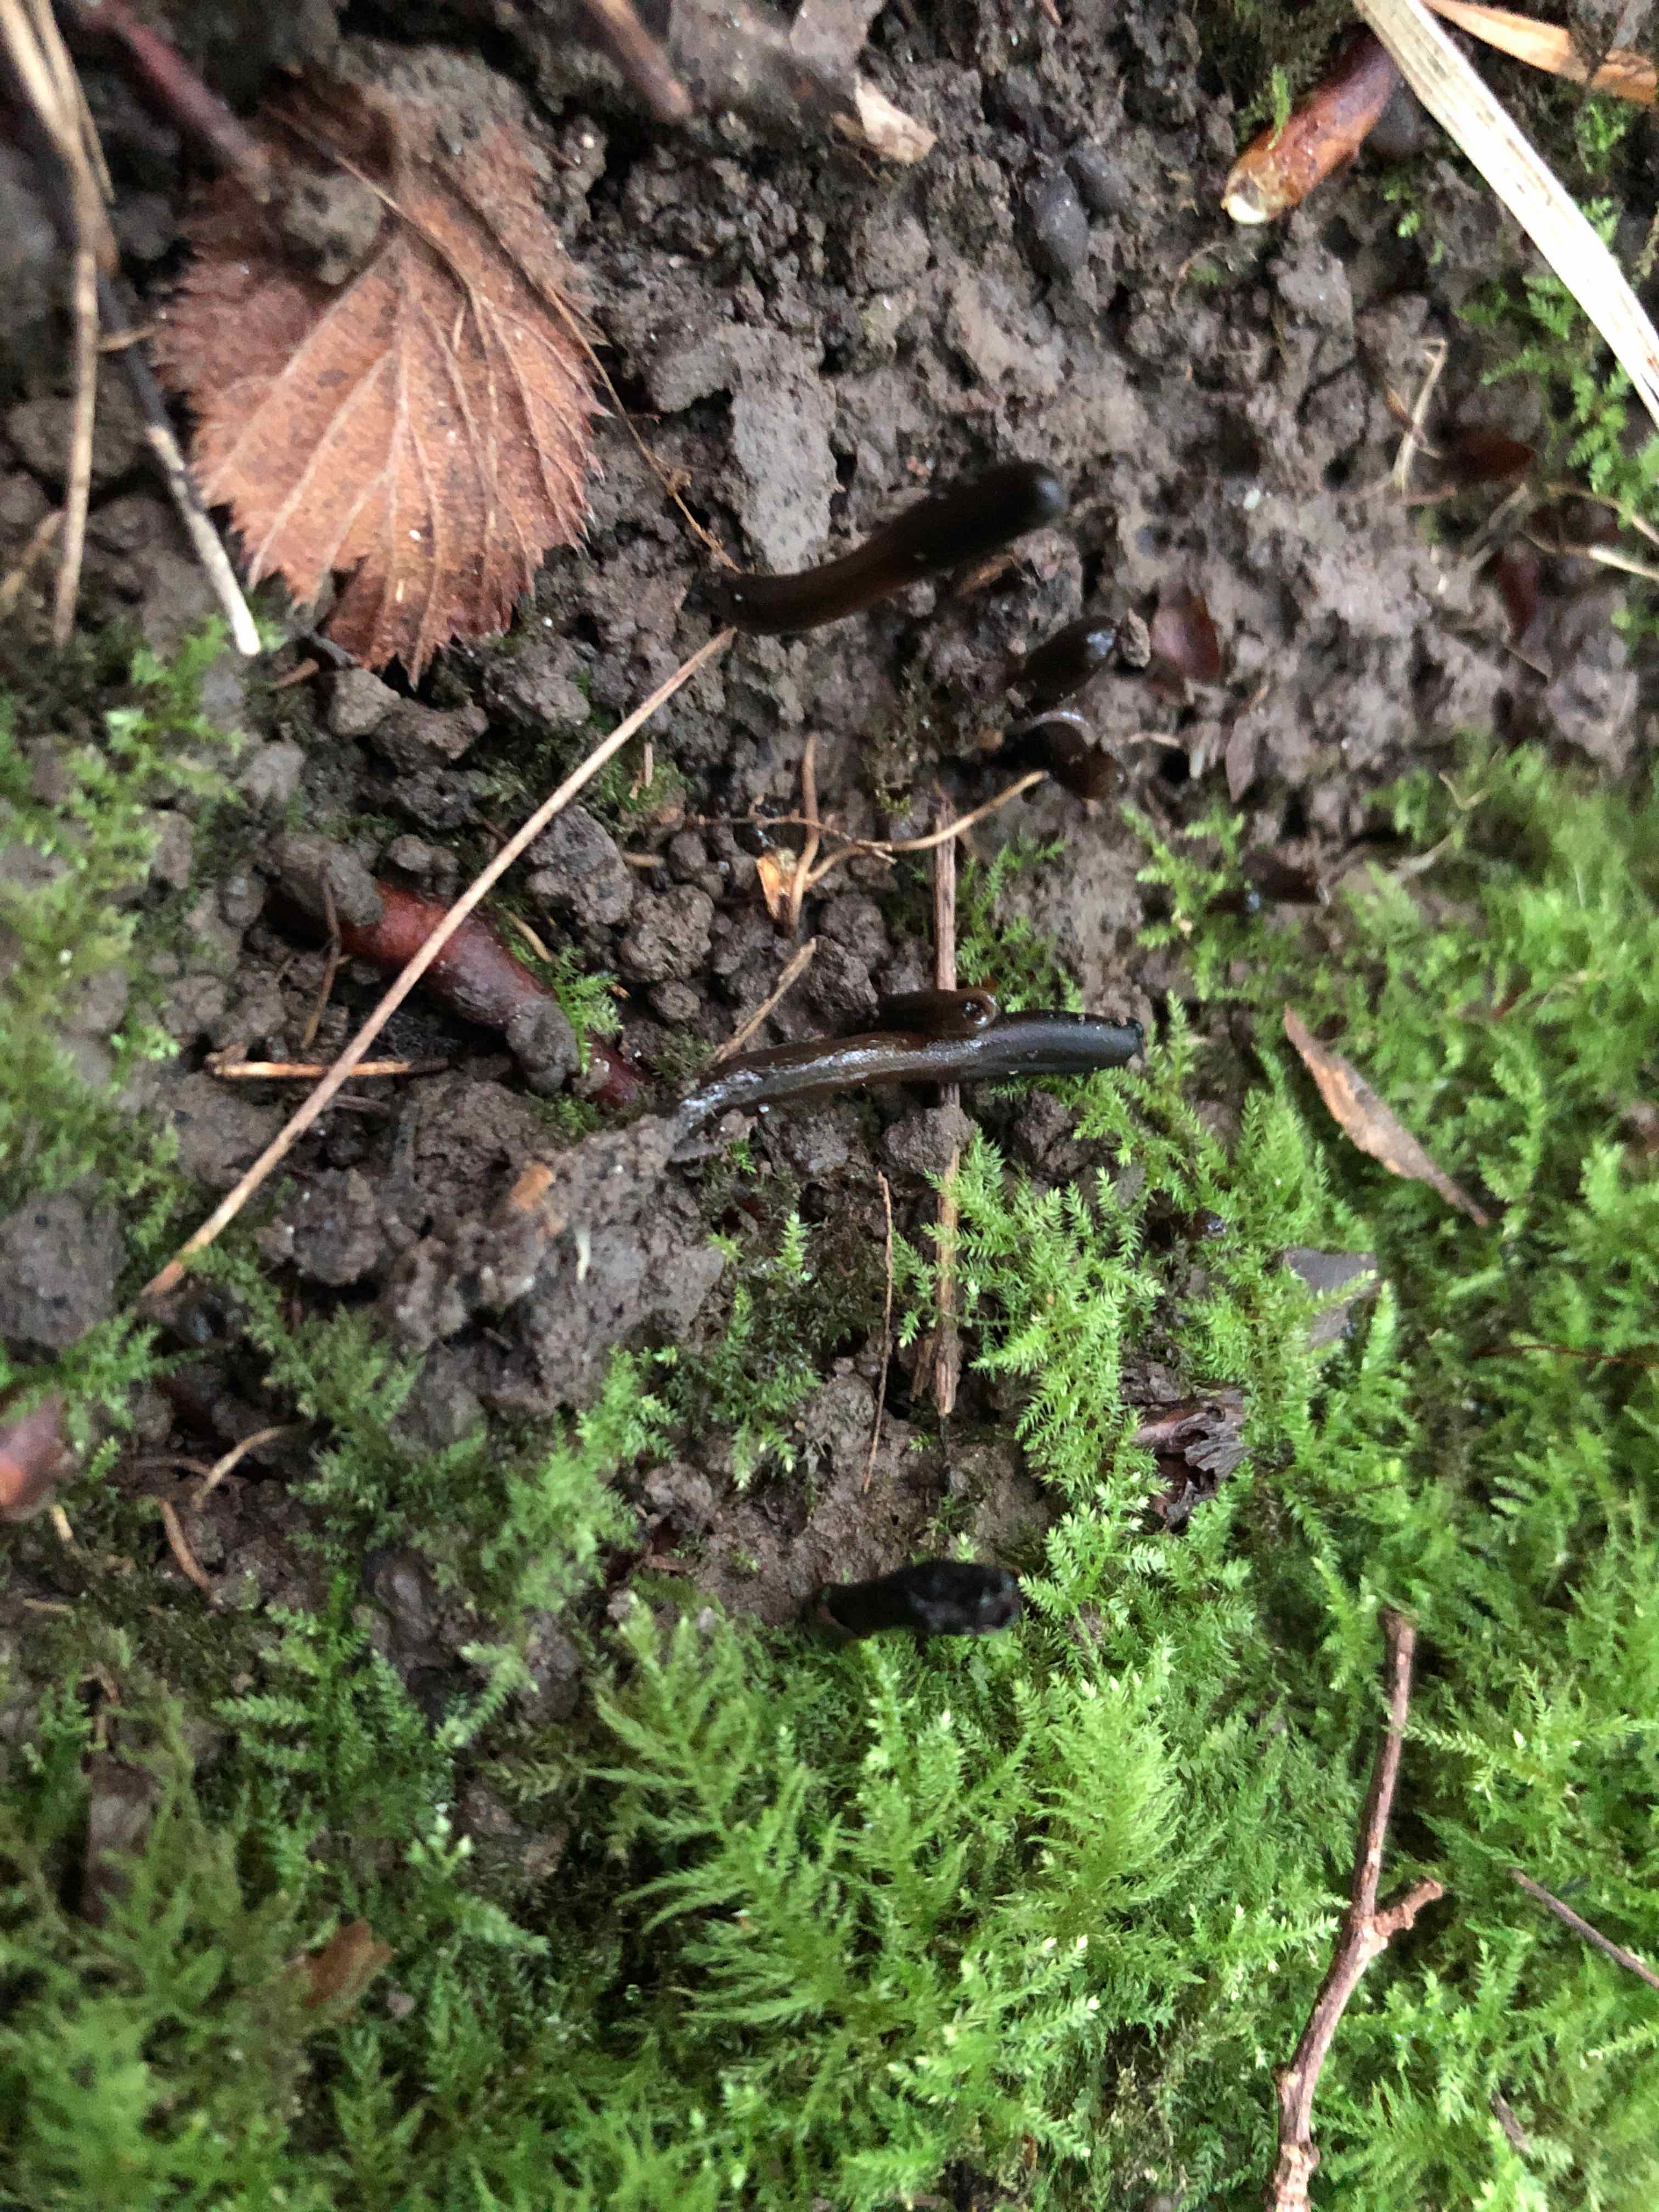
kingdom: Fungi
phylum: Ascomycota
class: Geoglossomycetes
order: Geoglossales
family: Geoglossaceae
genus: Glutinoglossum
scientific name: Glutinoglossum glutinosum
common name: slimet jordtunge
